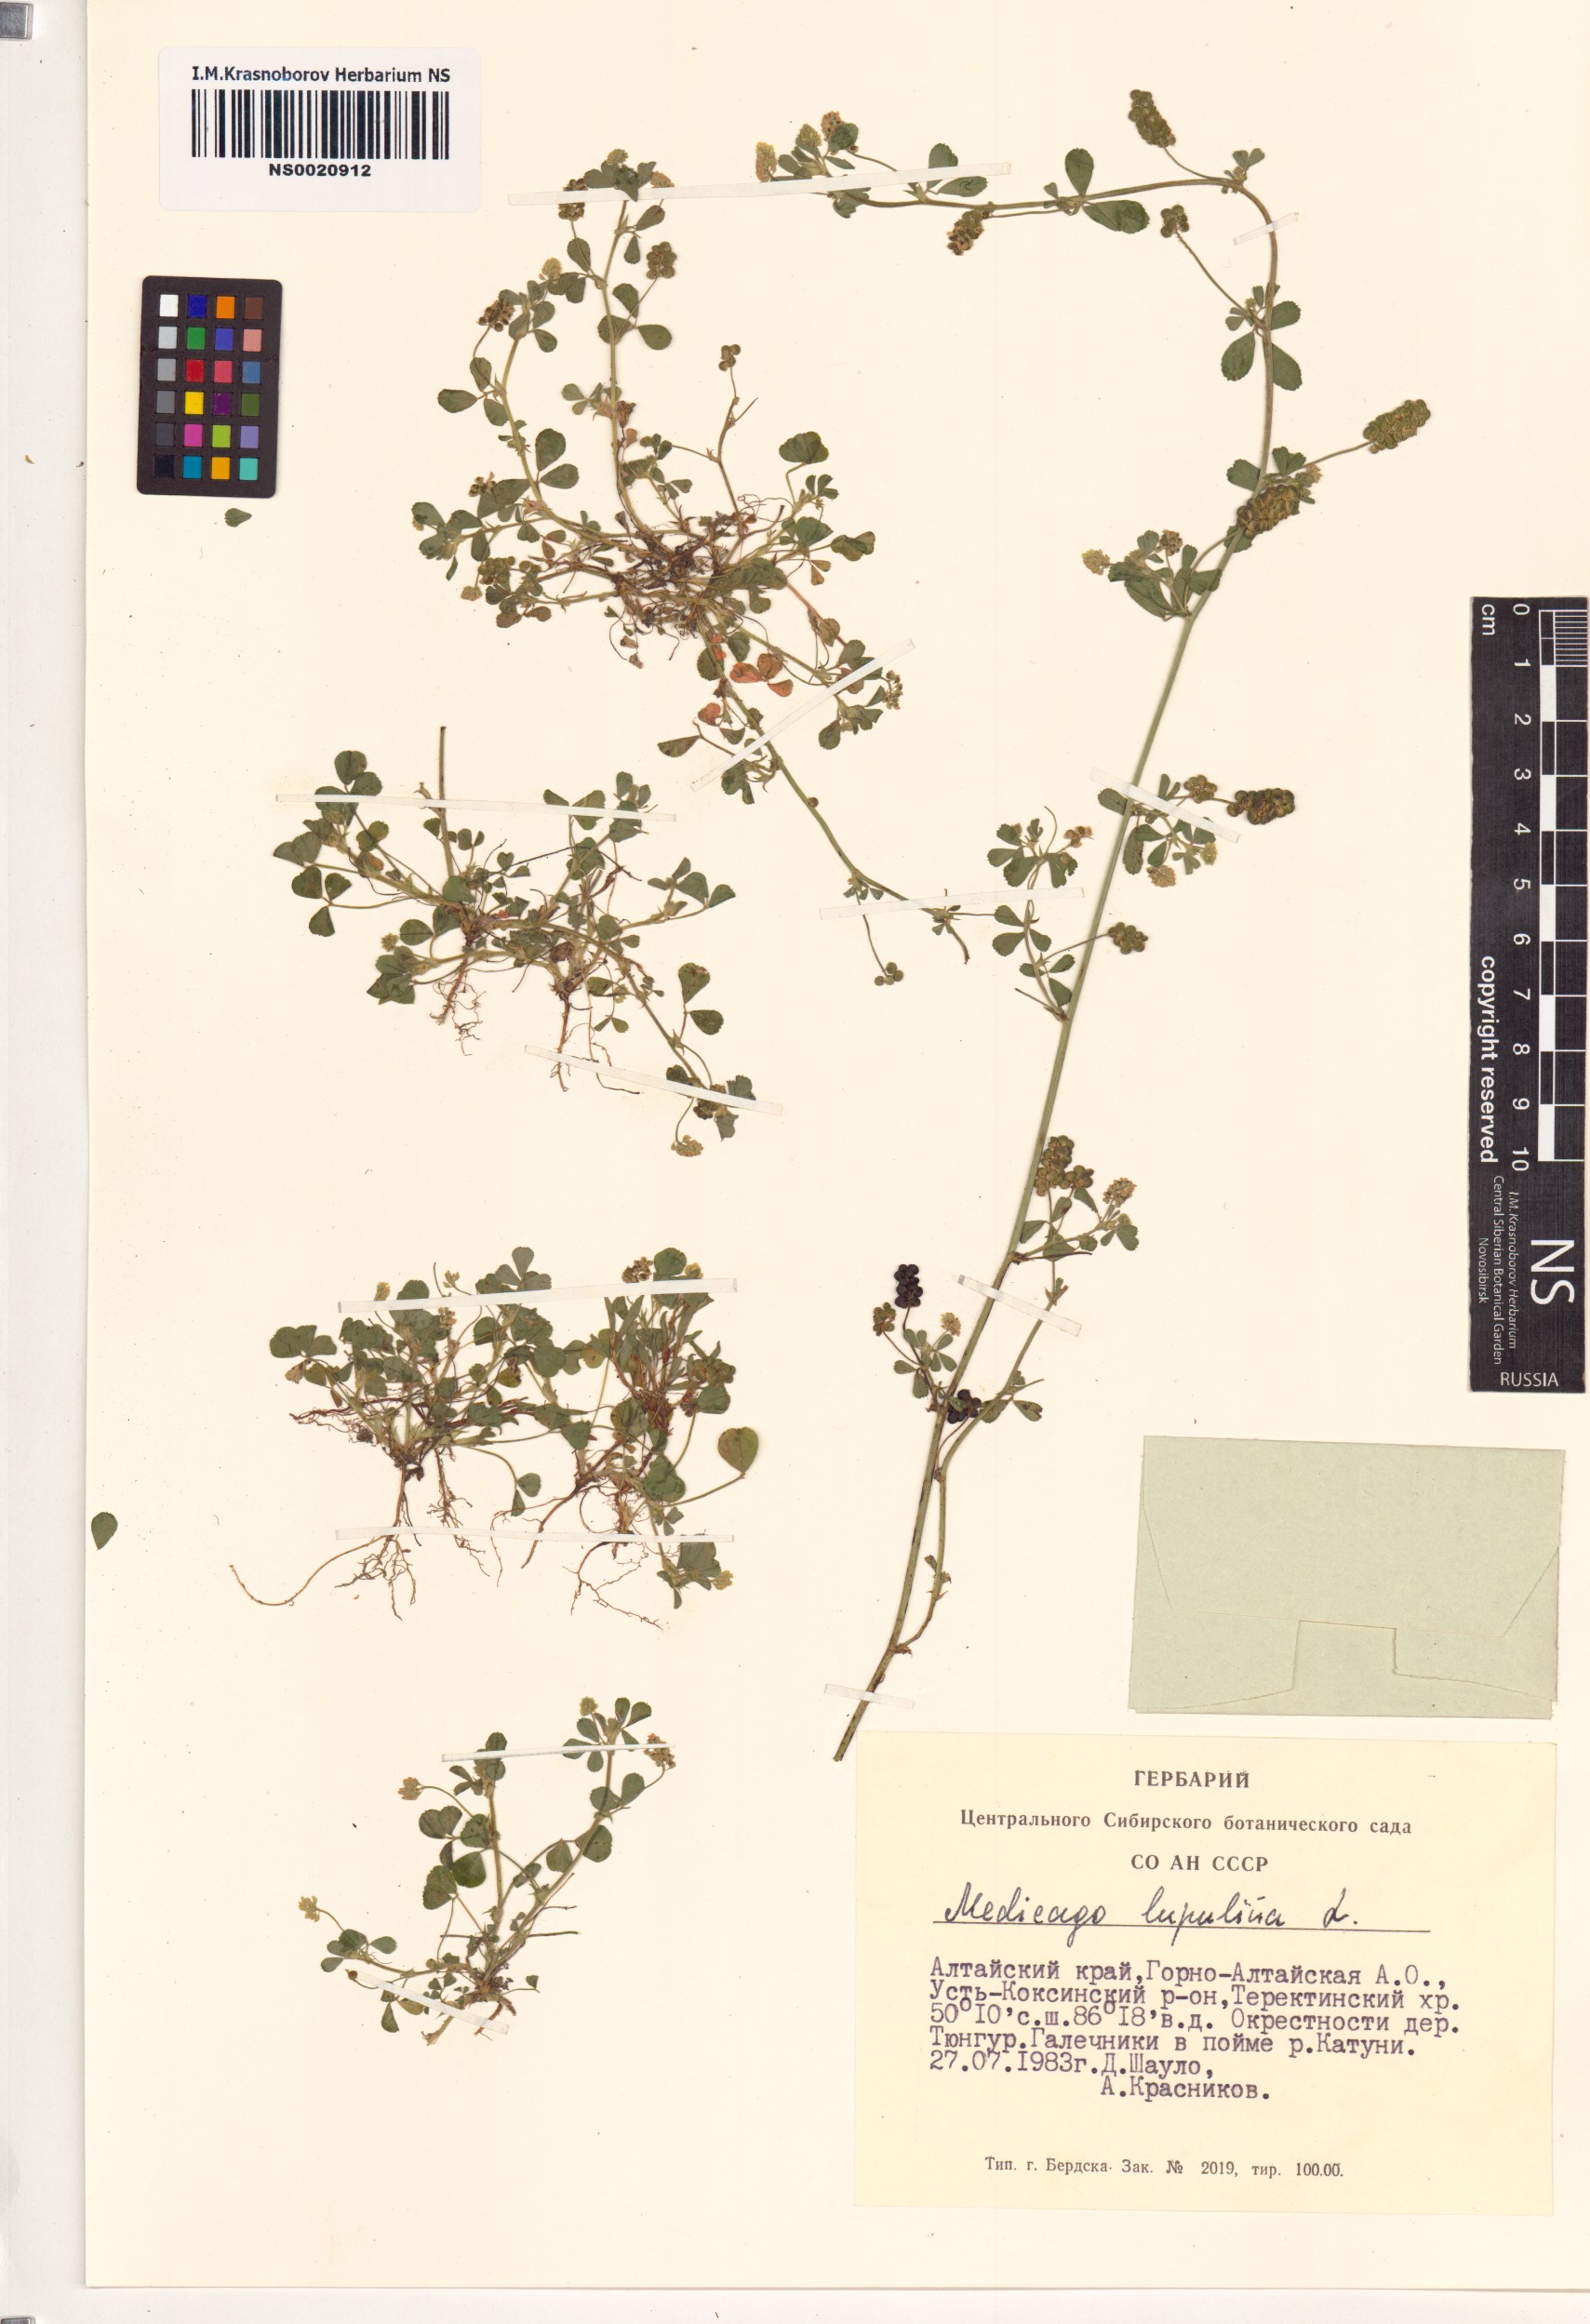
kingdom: Plantae
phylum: Tracheophyta
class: Magnoliopsida
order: Fabales
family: Fabaceae
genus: Medicago
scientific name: Medicago lupulina
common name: Black medick
